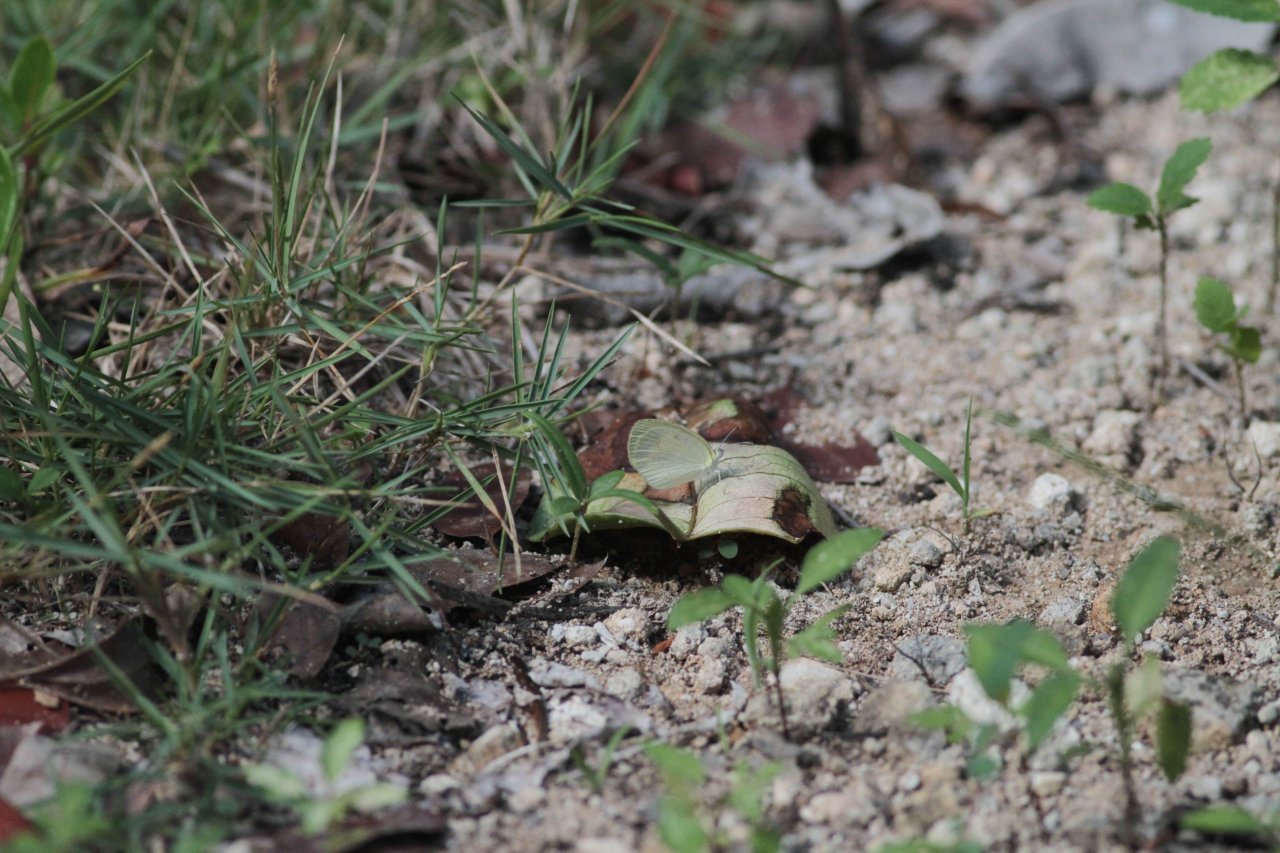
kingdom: Animalia
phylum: Arthropoda
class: Insecta
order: Lepidoptera
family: Pieridae
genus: Eurema
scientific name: Eurema daira
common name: Barred Yellow
